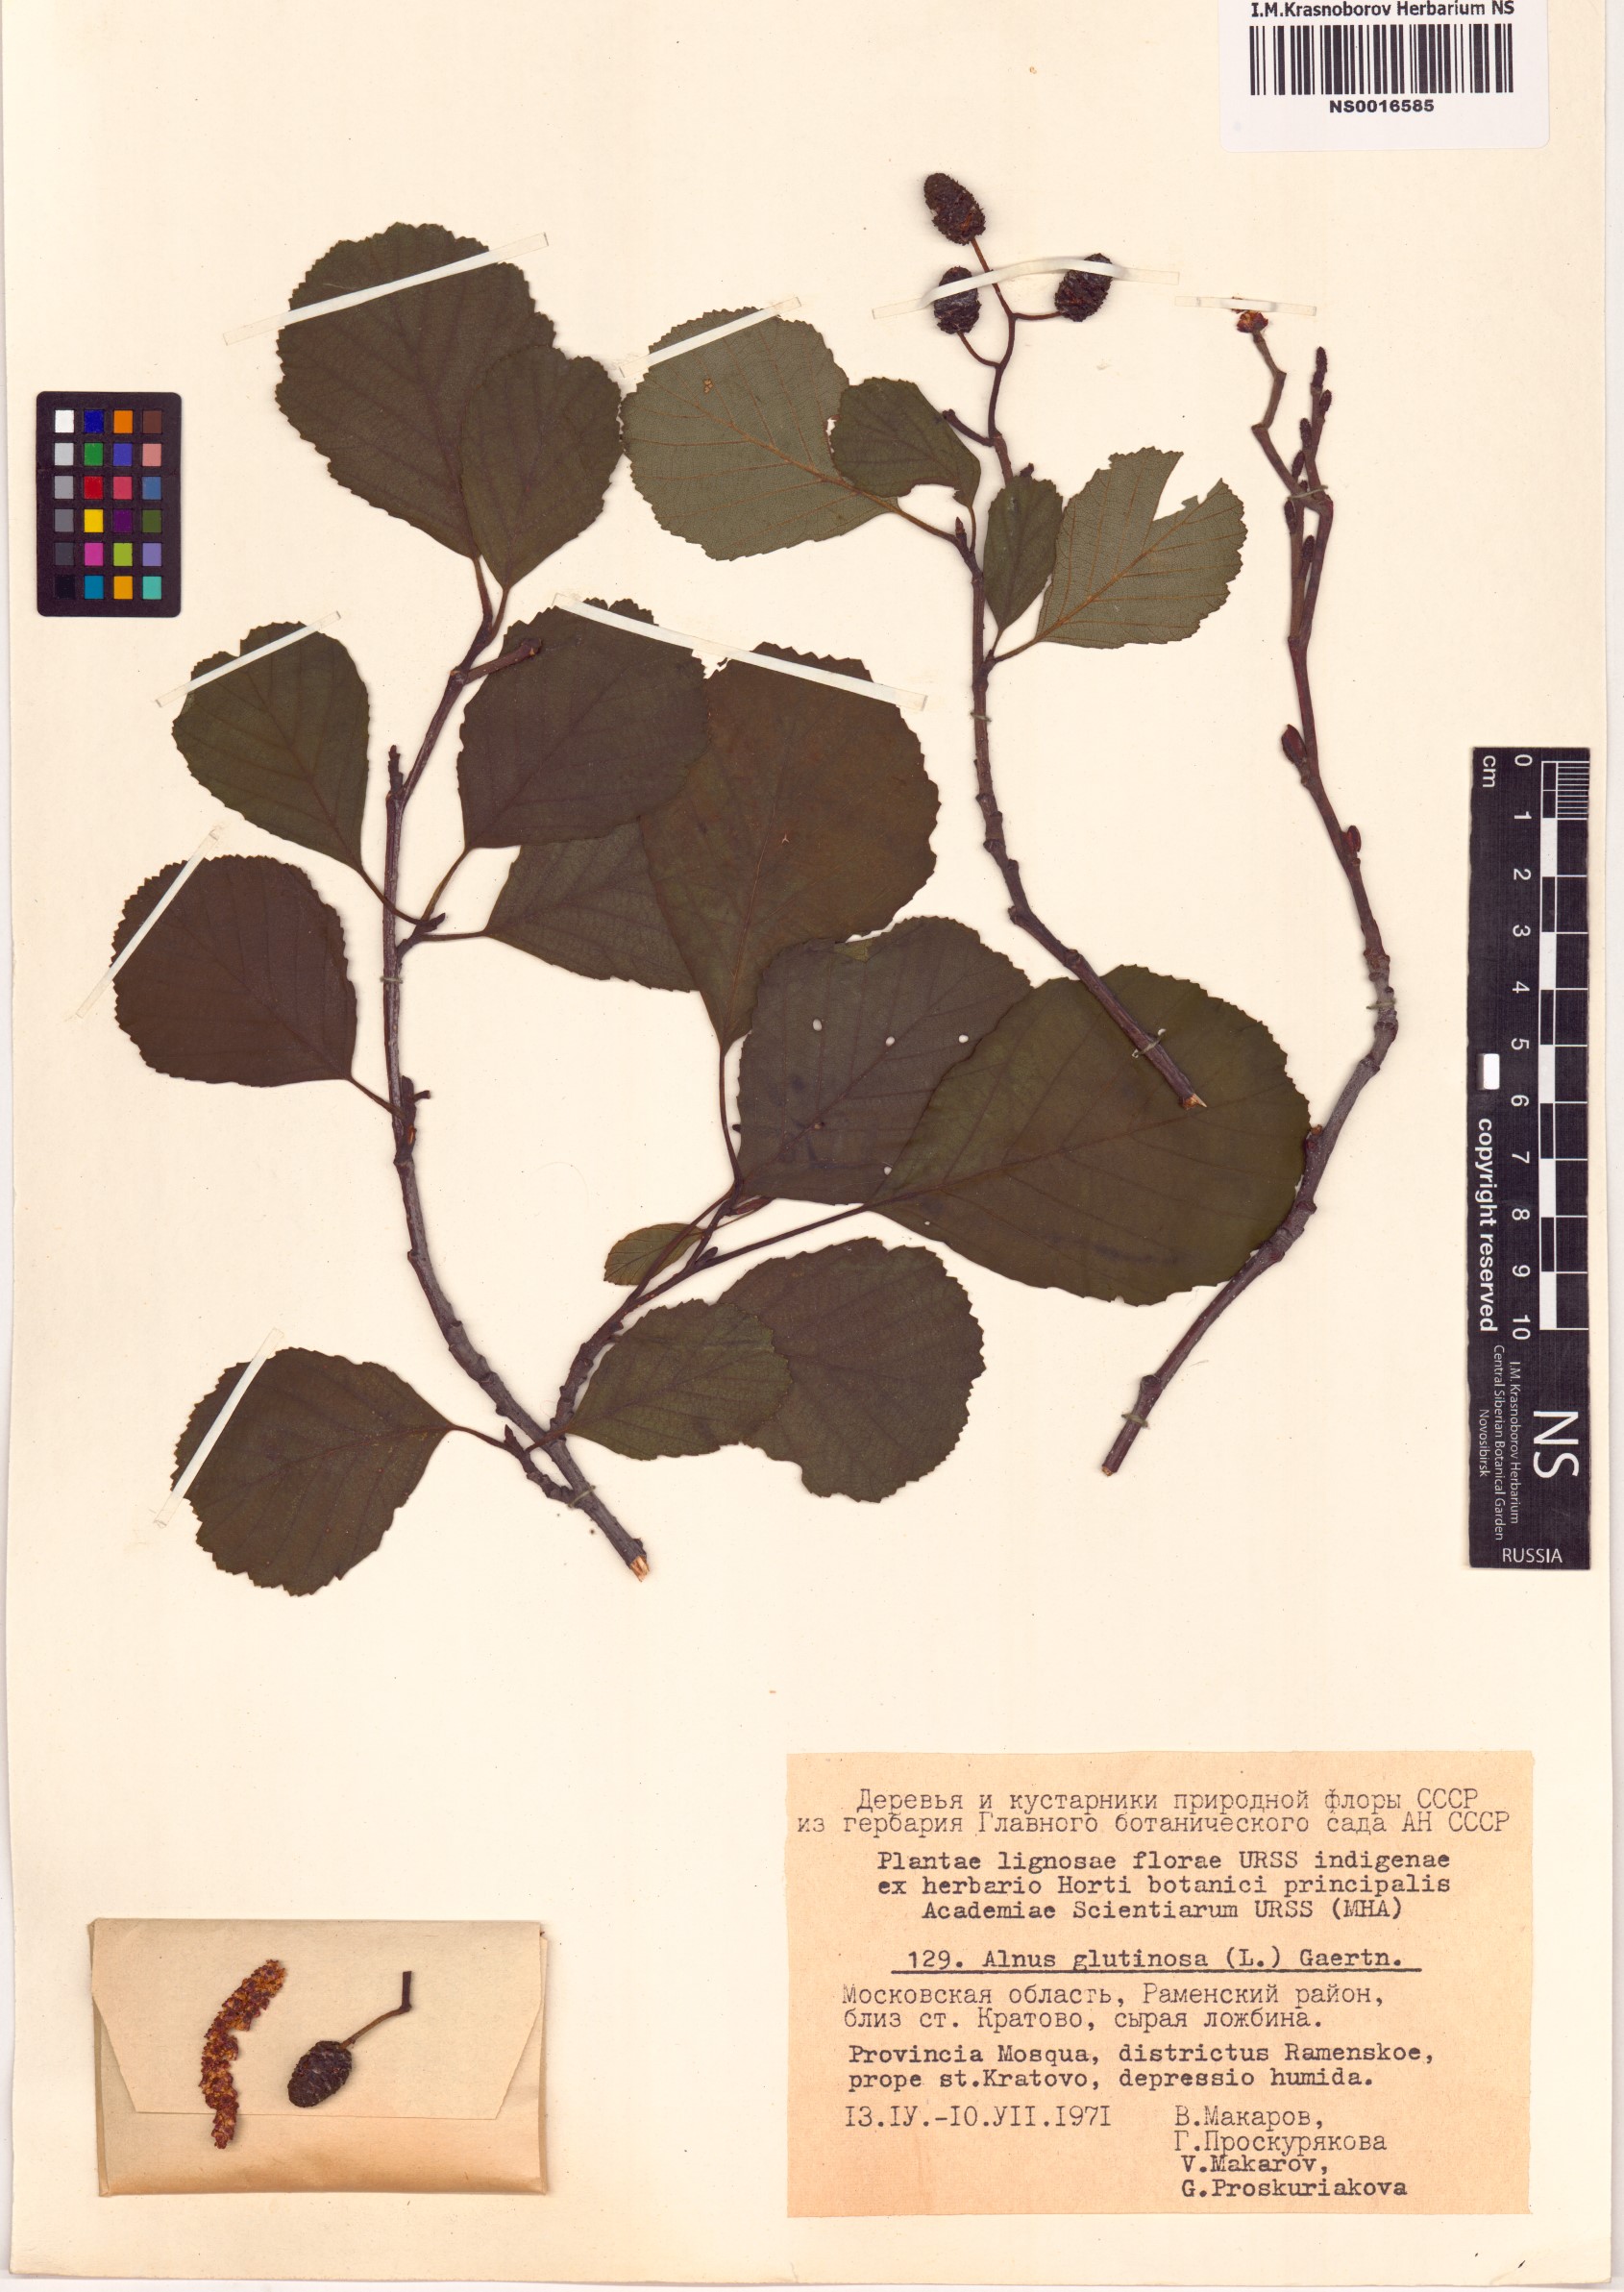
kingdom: Plantae
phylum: Tracheophyta
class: Magnoliopsida
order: Fagales
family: Betulaceae
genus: Alnus
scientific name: Alnus glutinosa
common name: Black alder
